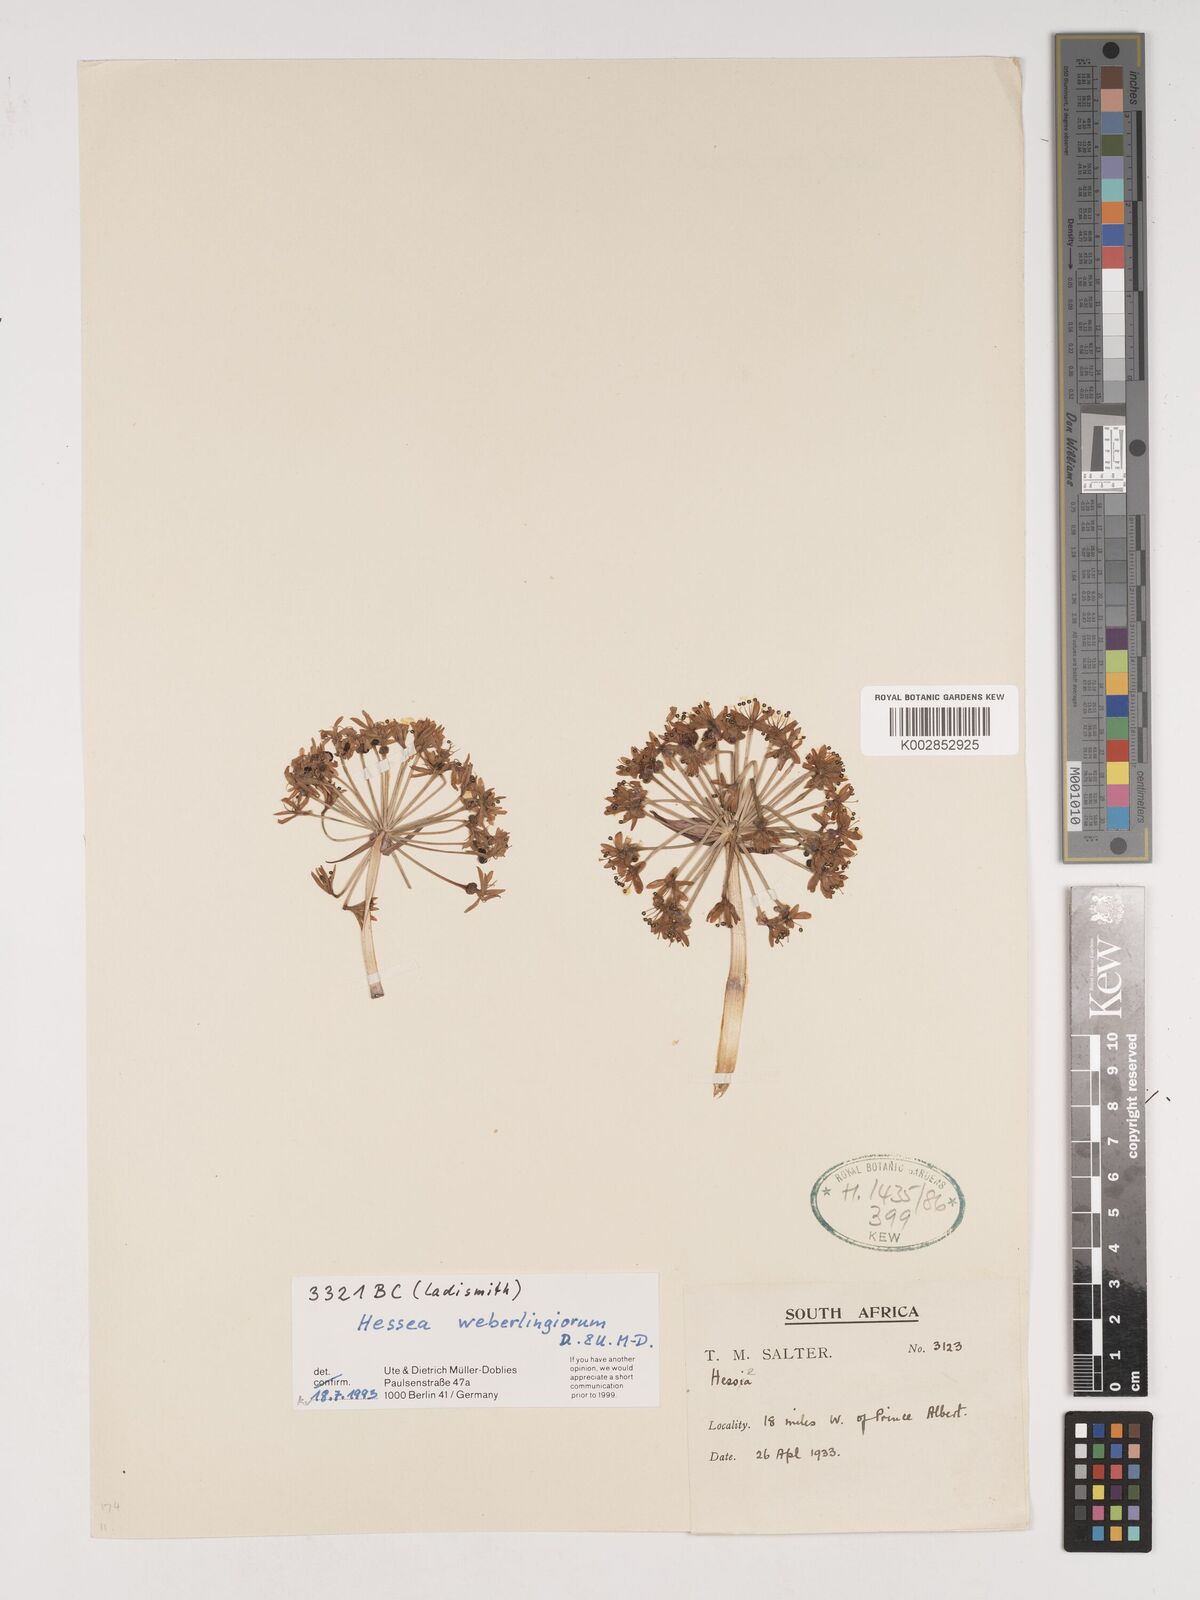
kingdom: Plantae
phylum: Tracheophyta
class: Liliopsida
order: Asparagales
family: Amaryllidaceae
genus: Hessea
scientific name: Hessea stellaris
